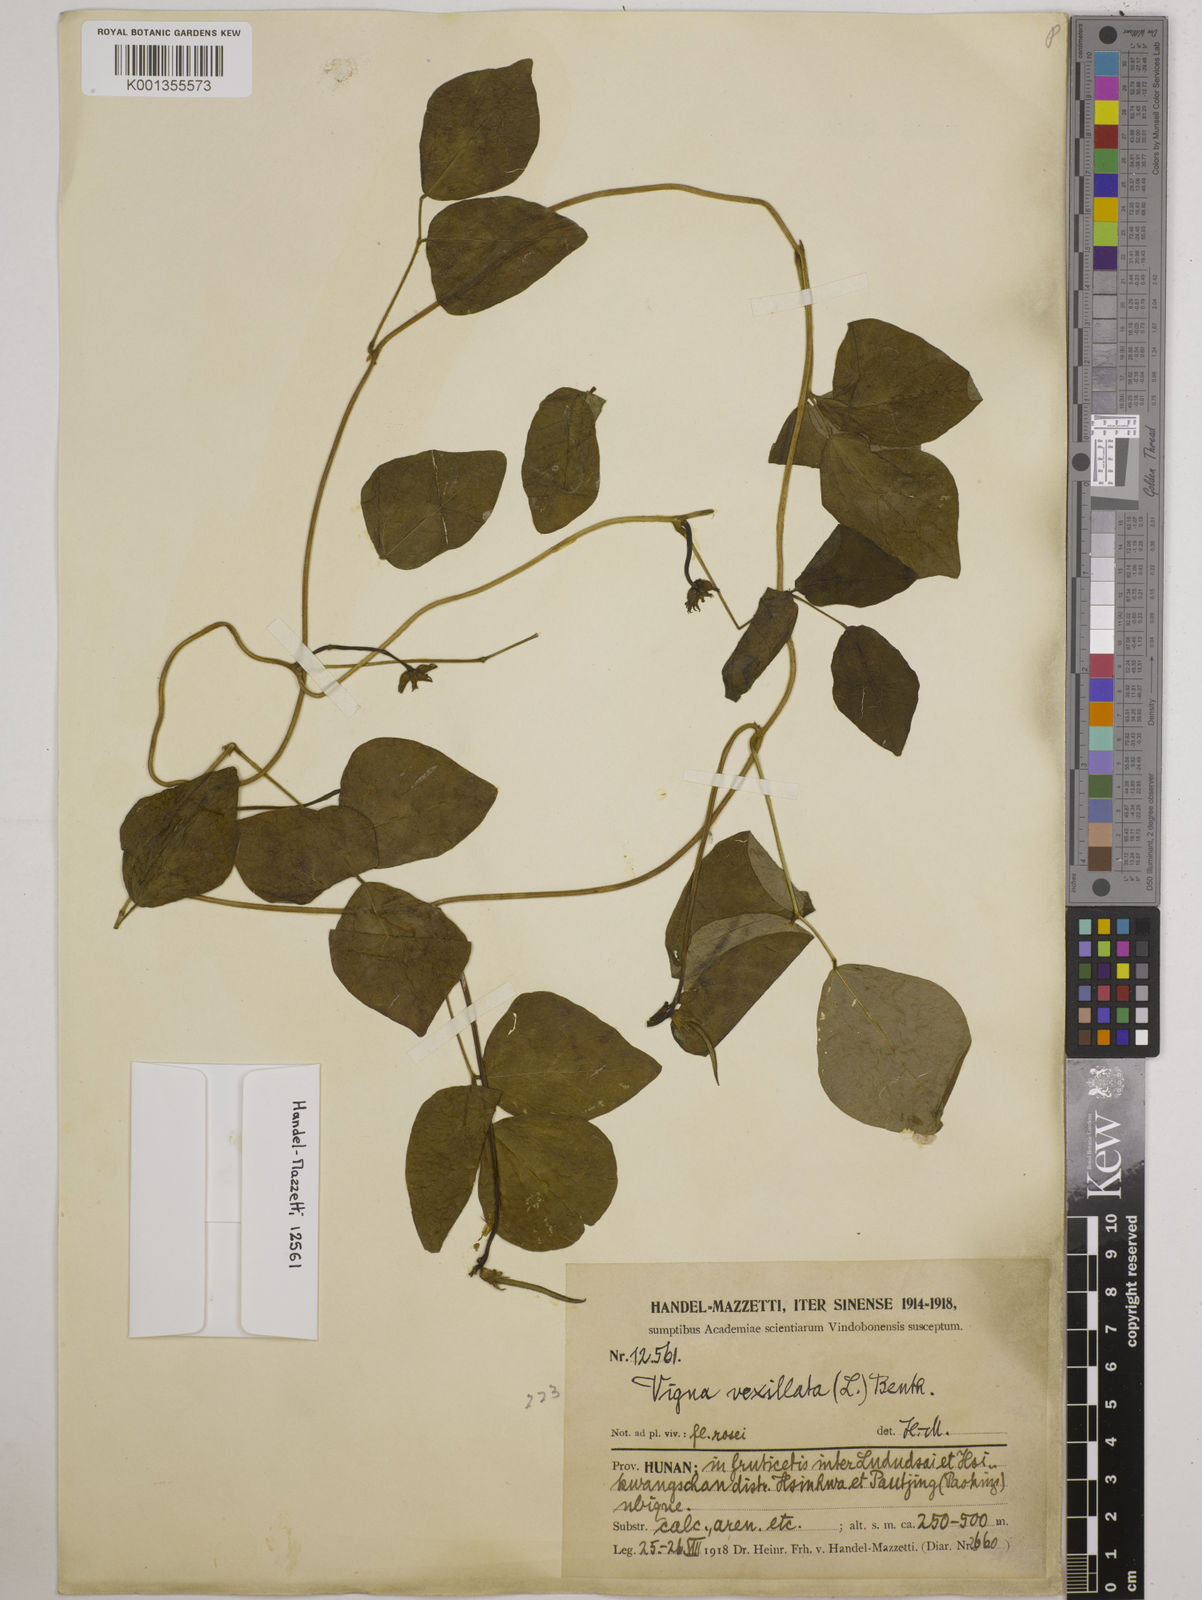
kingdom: Plantae
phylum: Tracheophyta
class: Magnoliopsida
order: Fabales
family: Fabaceae
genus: Vigna
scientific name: Vigna vexillata
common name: Zombi pea
